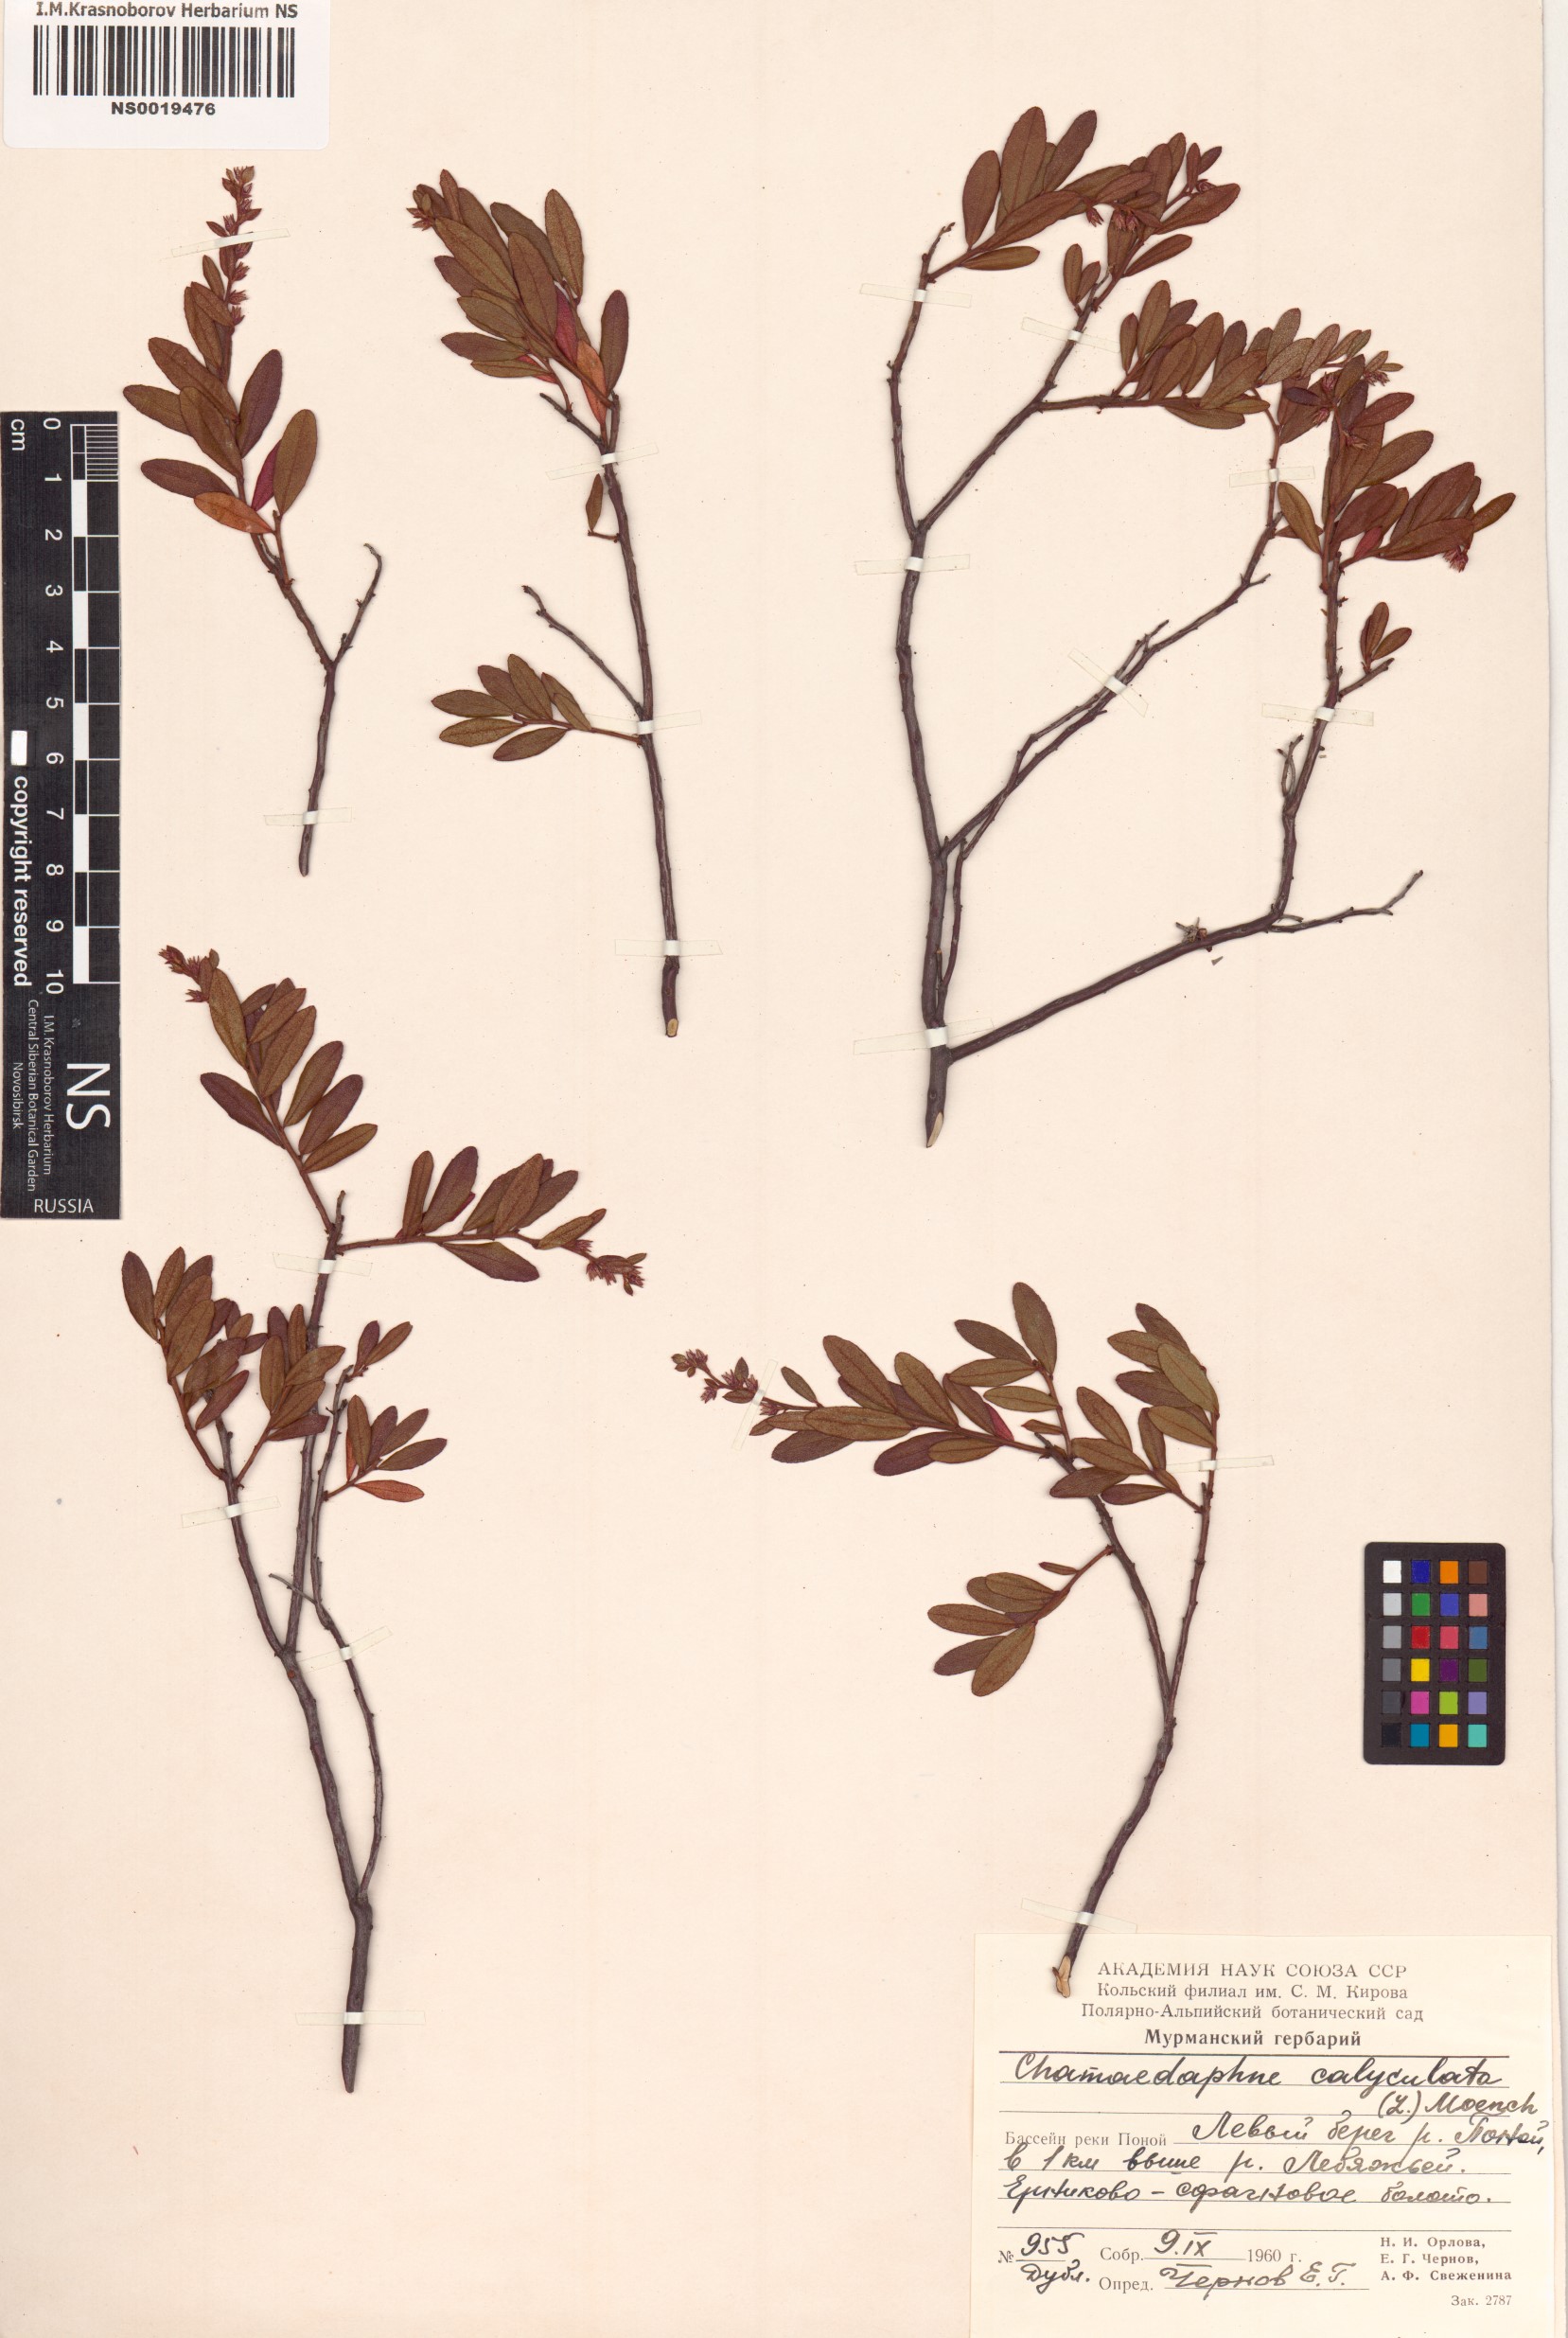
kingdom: Plantae
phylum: Tracheophyta
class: Magnoliopsida
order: Ericales
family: Ericaceae
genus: Chamaedaphne
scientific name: Chamaedaphne calyculata
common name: Leatherleaf
